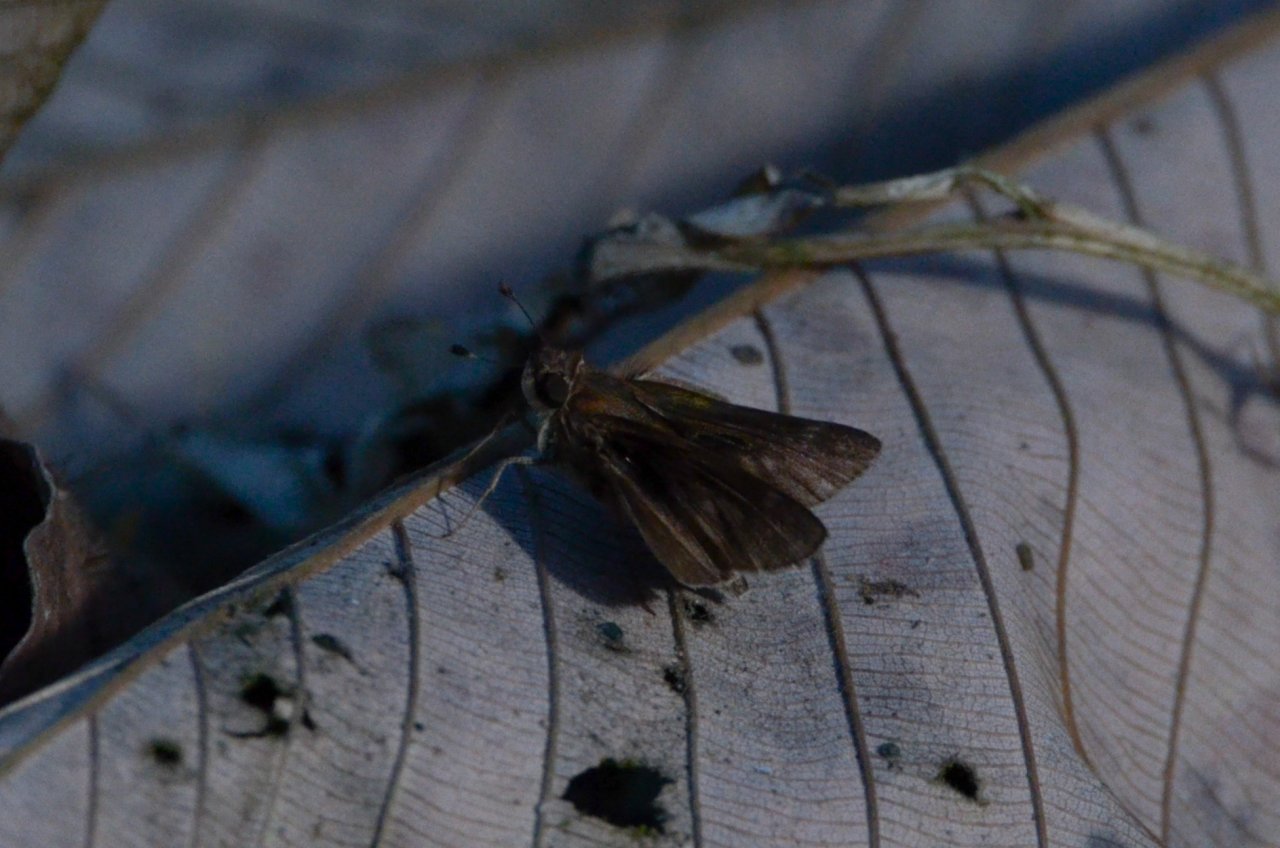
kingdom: Animalia
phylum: Arthropoda
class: Insecta
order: Lepidoptera
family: Hesperiidae
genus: Pompeius
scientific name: Pompeius
